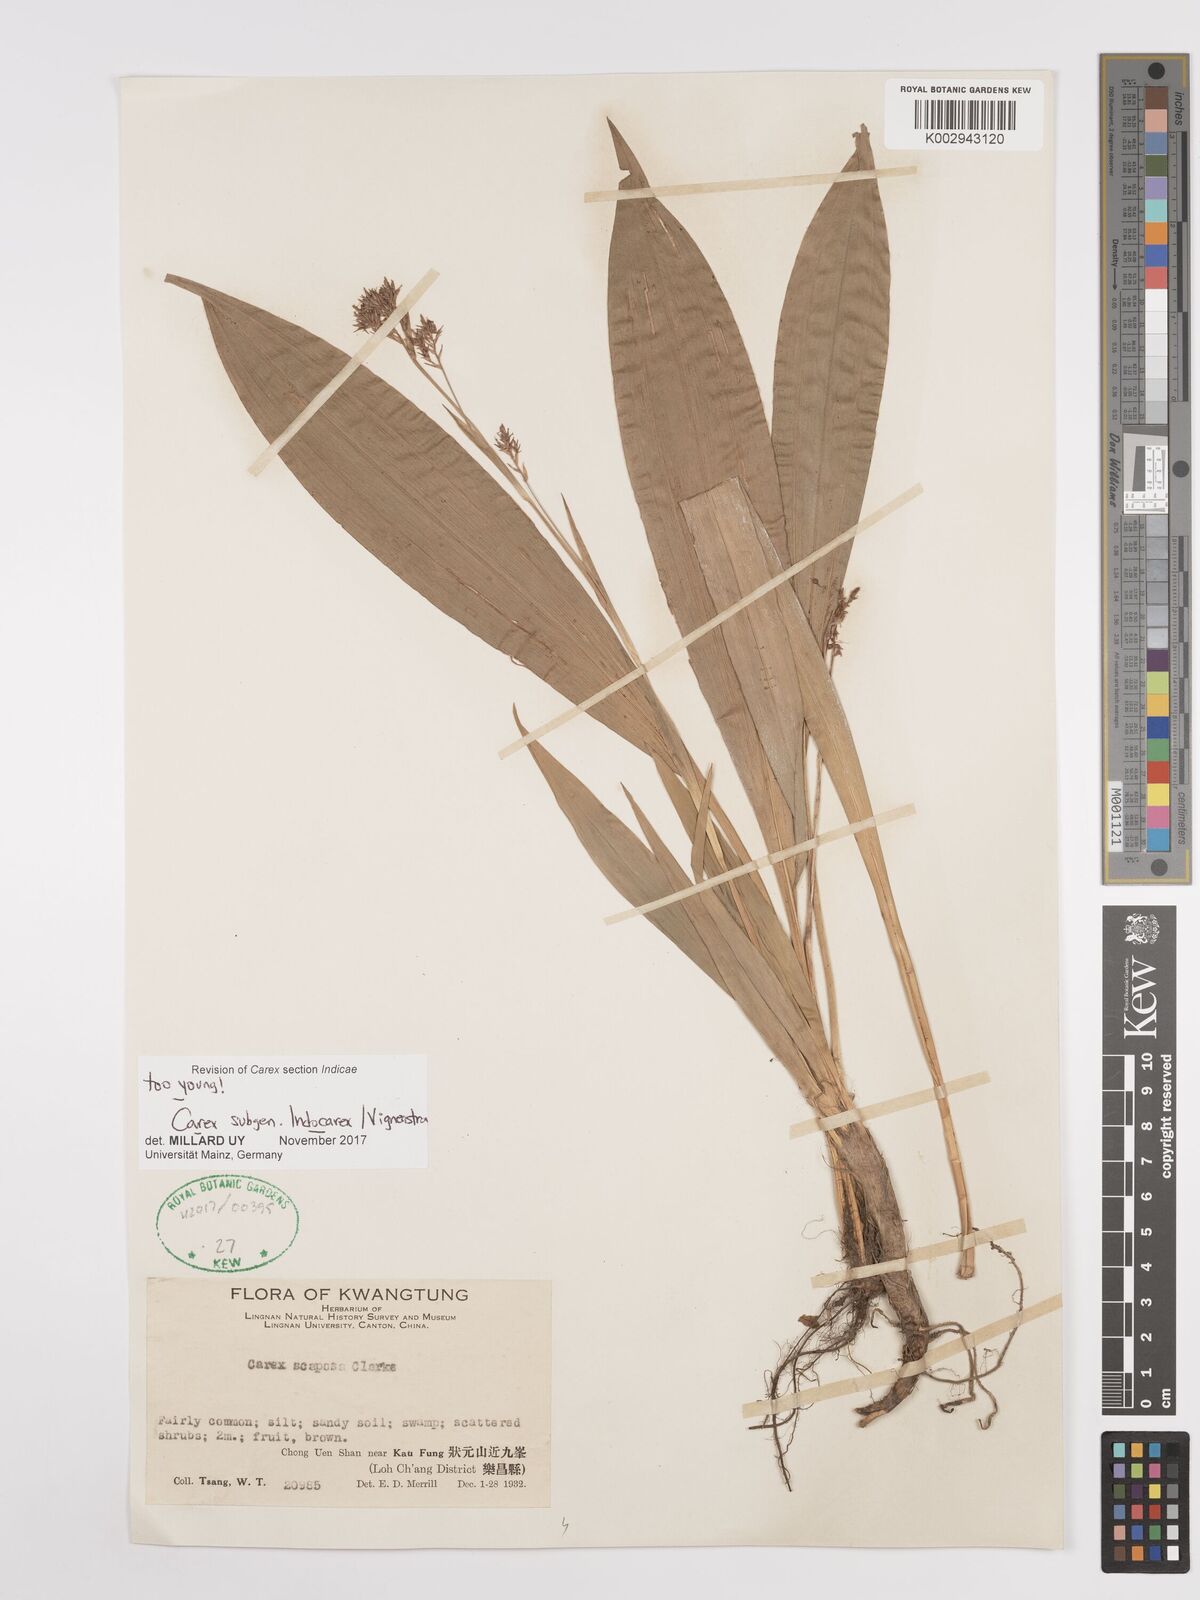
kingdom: Plantae
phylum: Tracheophyta
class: Liliopsida
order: Poales
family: Cyperaceae
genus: Carex
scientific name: Carex
